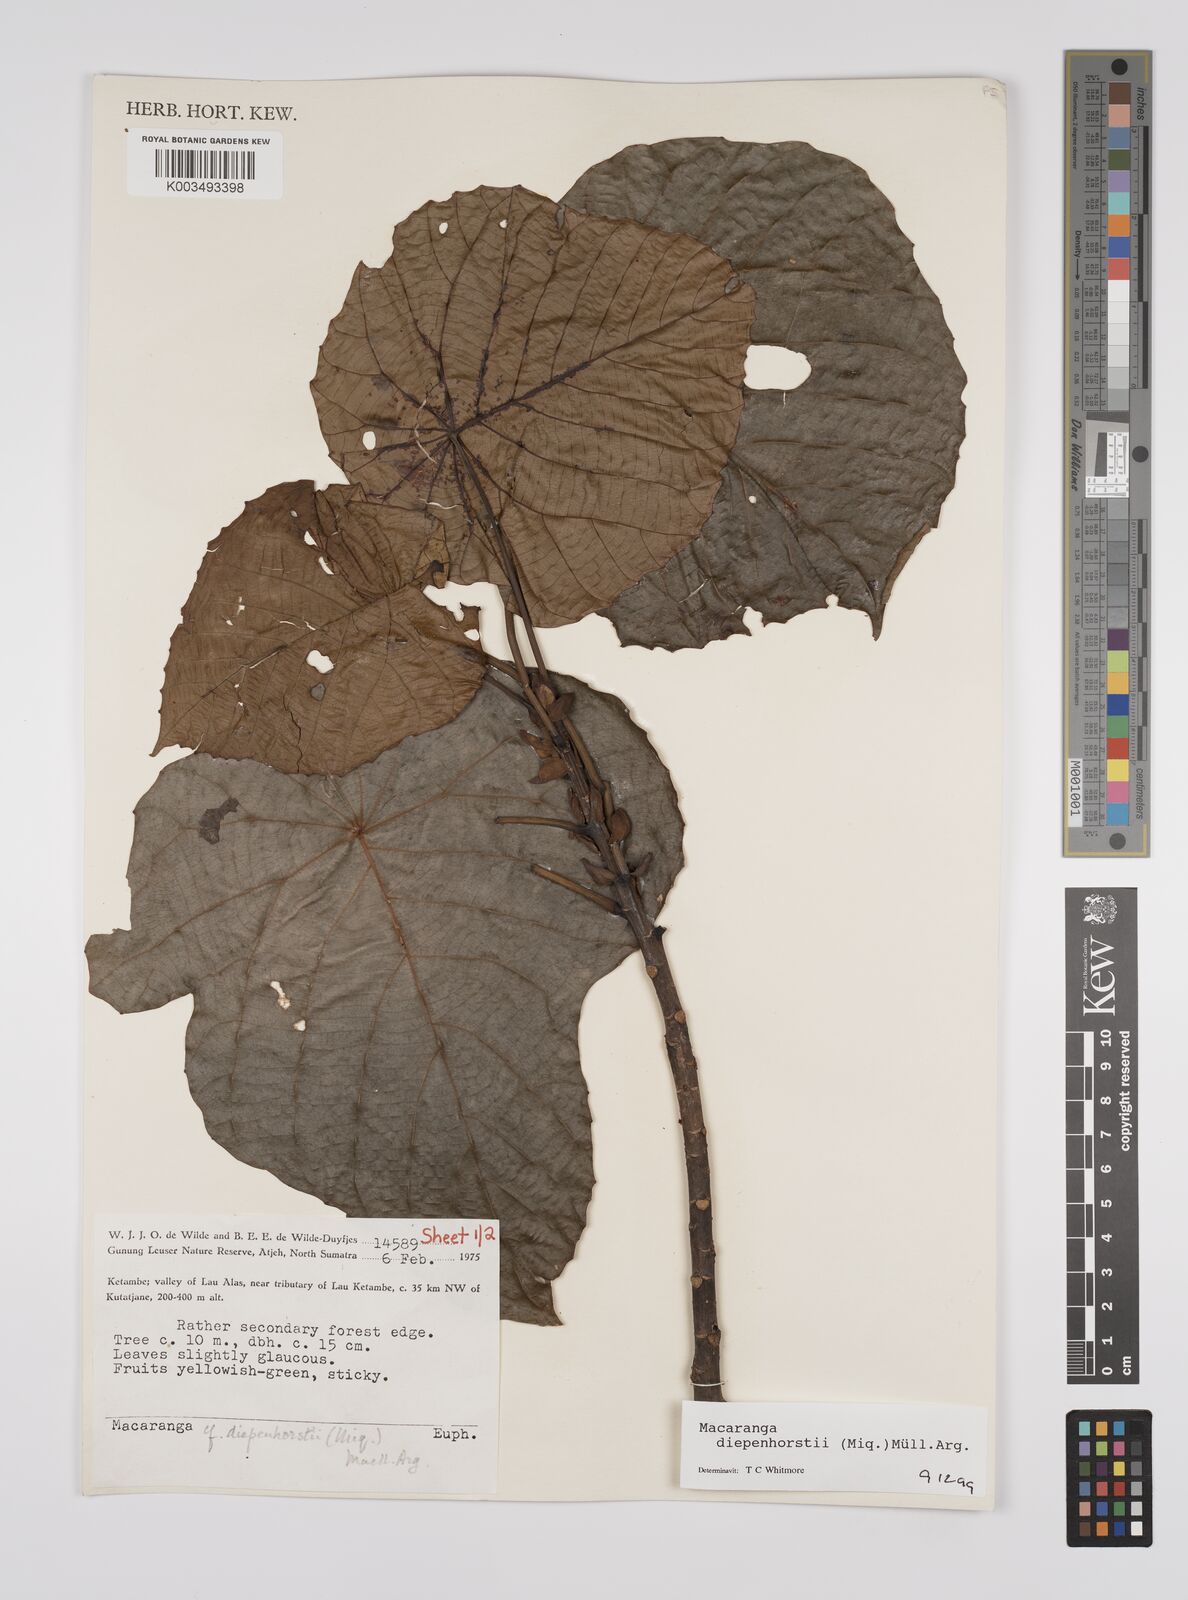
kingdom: Plantae
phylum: Tracheophyta
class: Magnoliopsida
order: Malpighiales
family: Euphorbiaceae
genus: Macaranga
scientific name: Macaranga diepenhorstii
